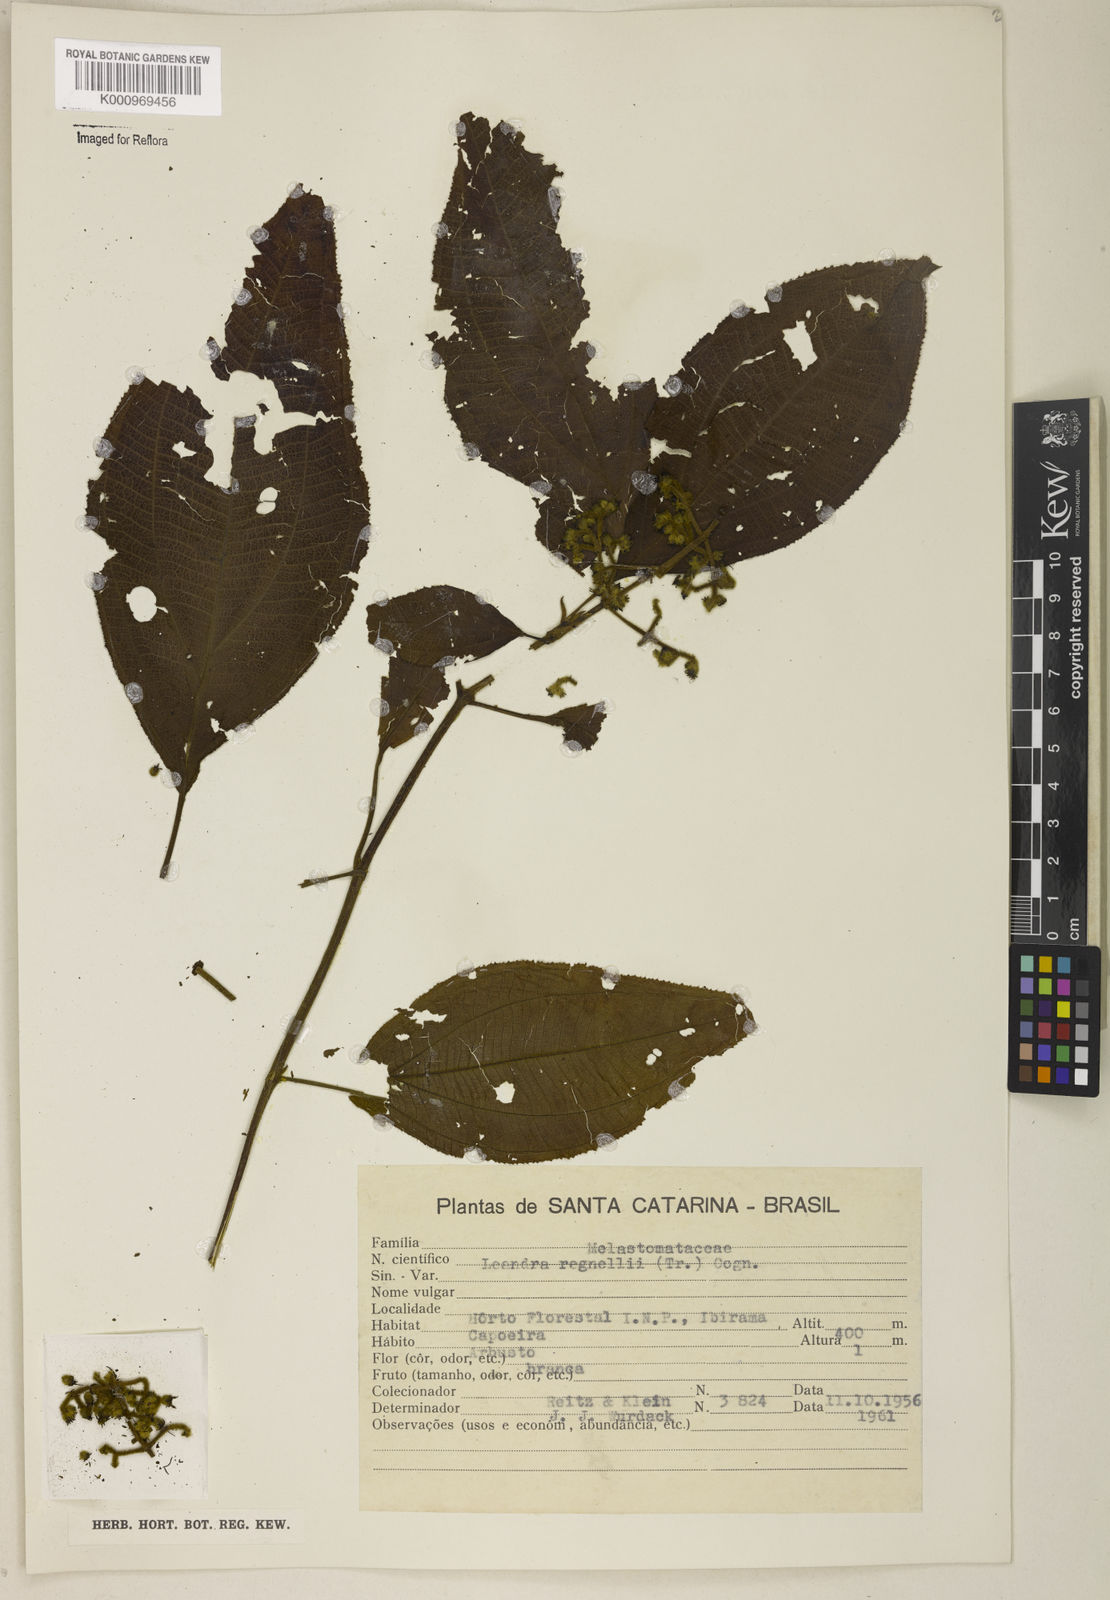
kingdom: Plantae
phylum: Tracheophyta
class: Magnoliopsida
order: Myrtales
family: Melastomataceae
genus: Miconia
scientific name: Miconia alterninervia
